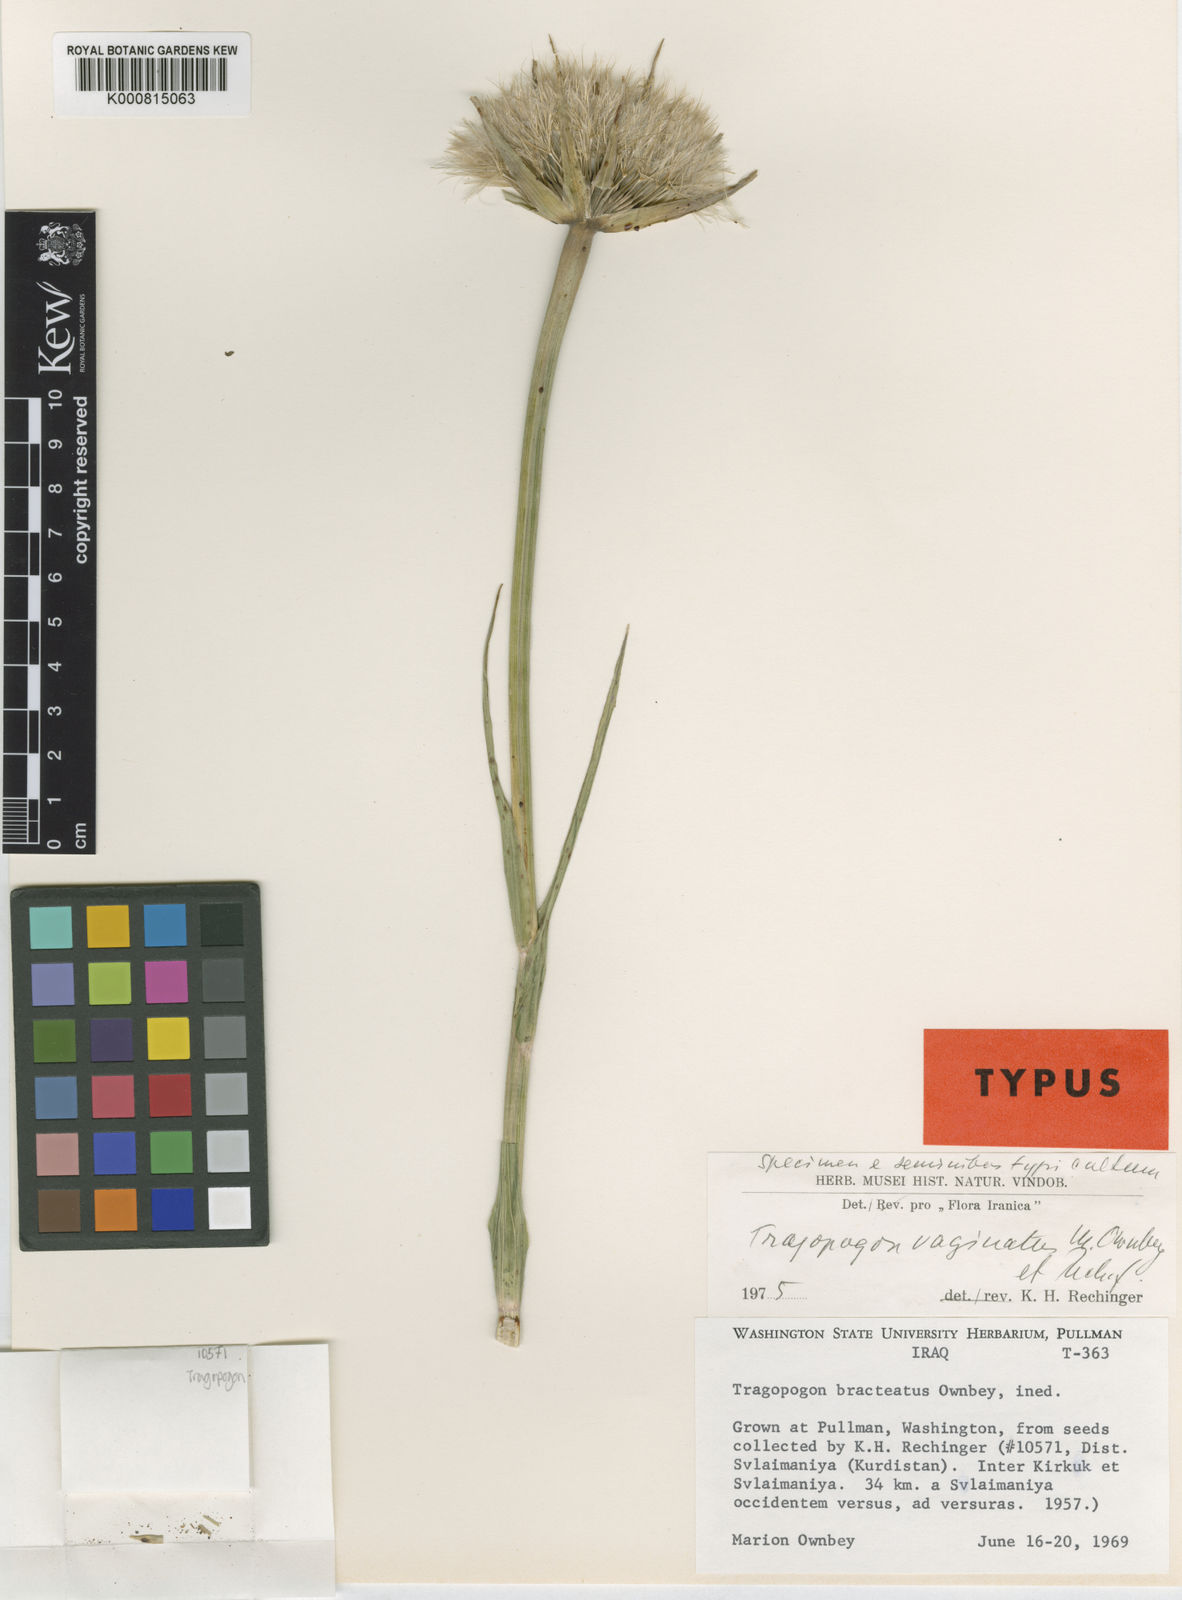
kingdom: Plantae
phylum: Tracheophyta
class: Magnoliopsida
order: Asterales
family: Asteraceae
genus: Tragopogon
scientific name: Tragopogon vaginatus
